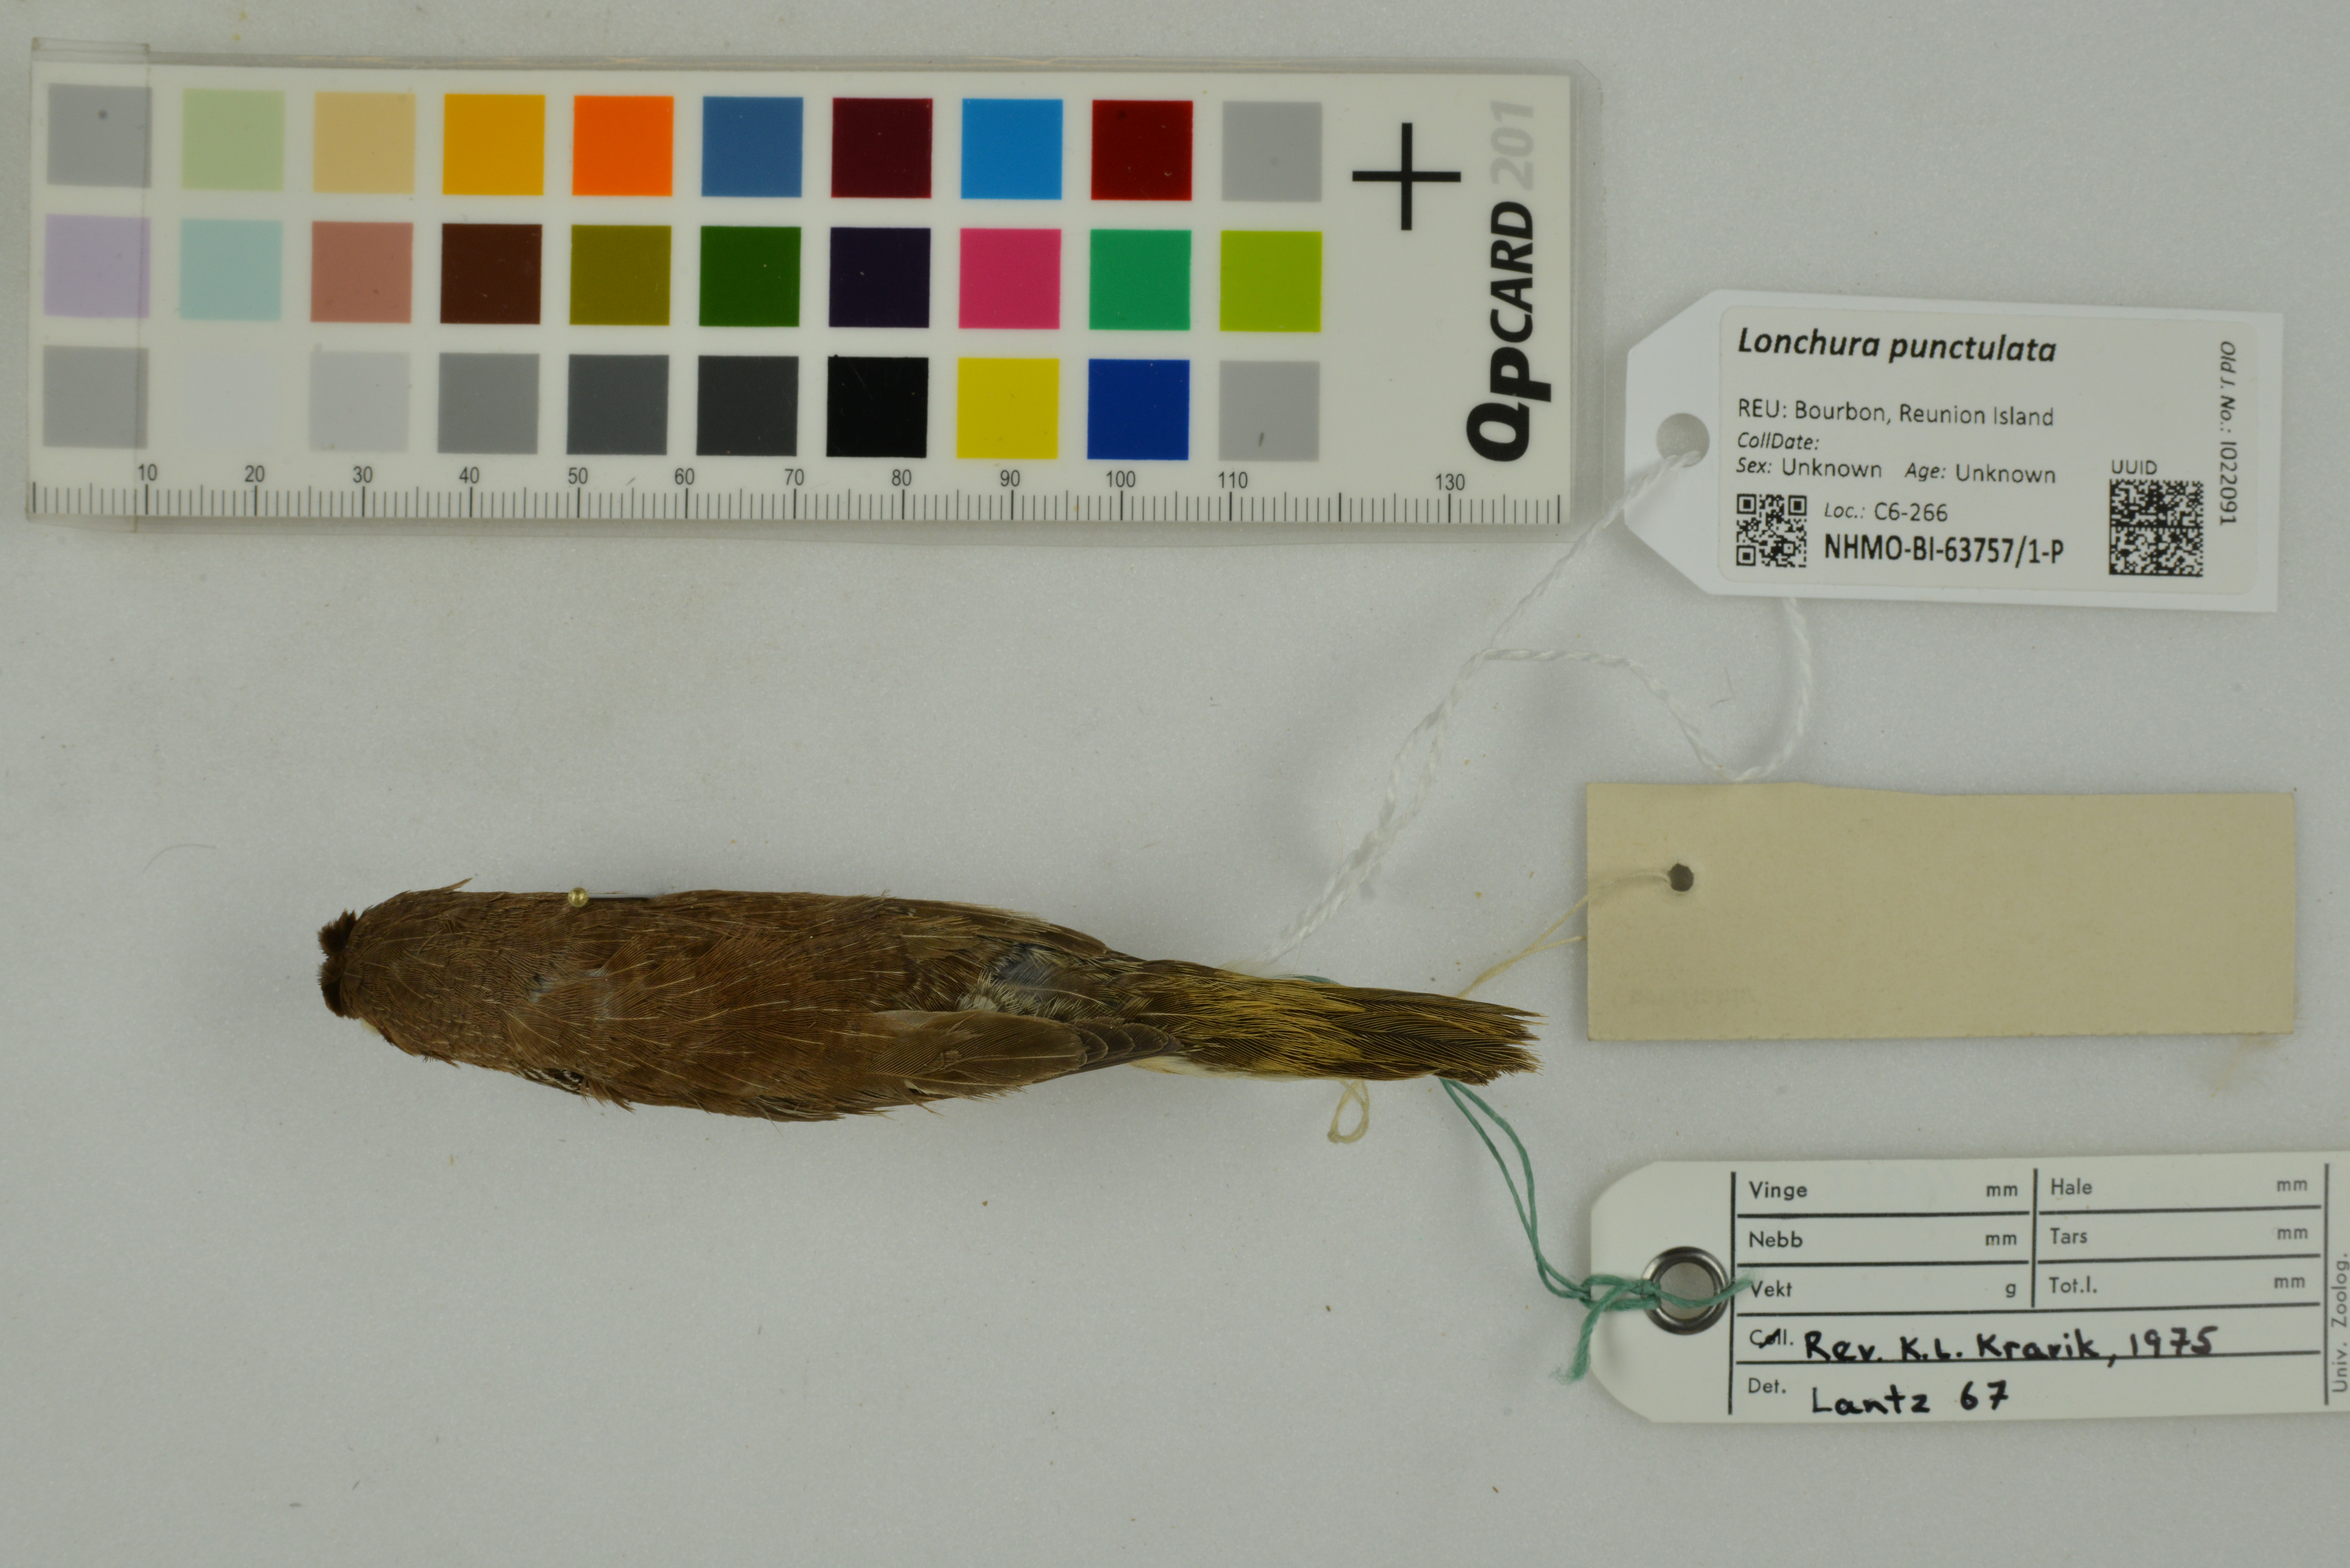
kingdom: Animalia
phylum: Chordata
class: Aves
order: Passeriformes
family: Estrildidae
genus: Lonchura
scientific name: Lonchura punctulata
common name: Scaly-breasted munia
